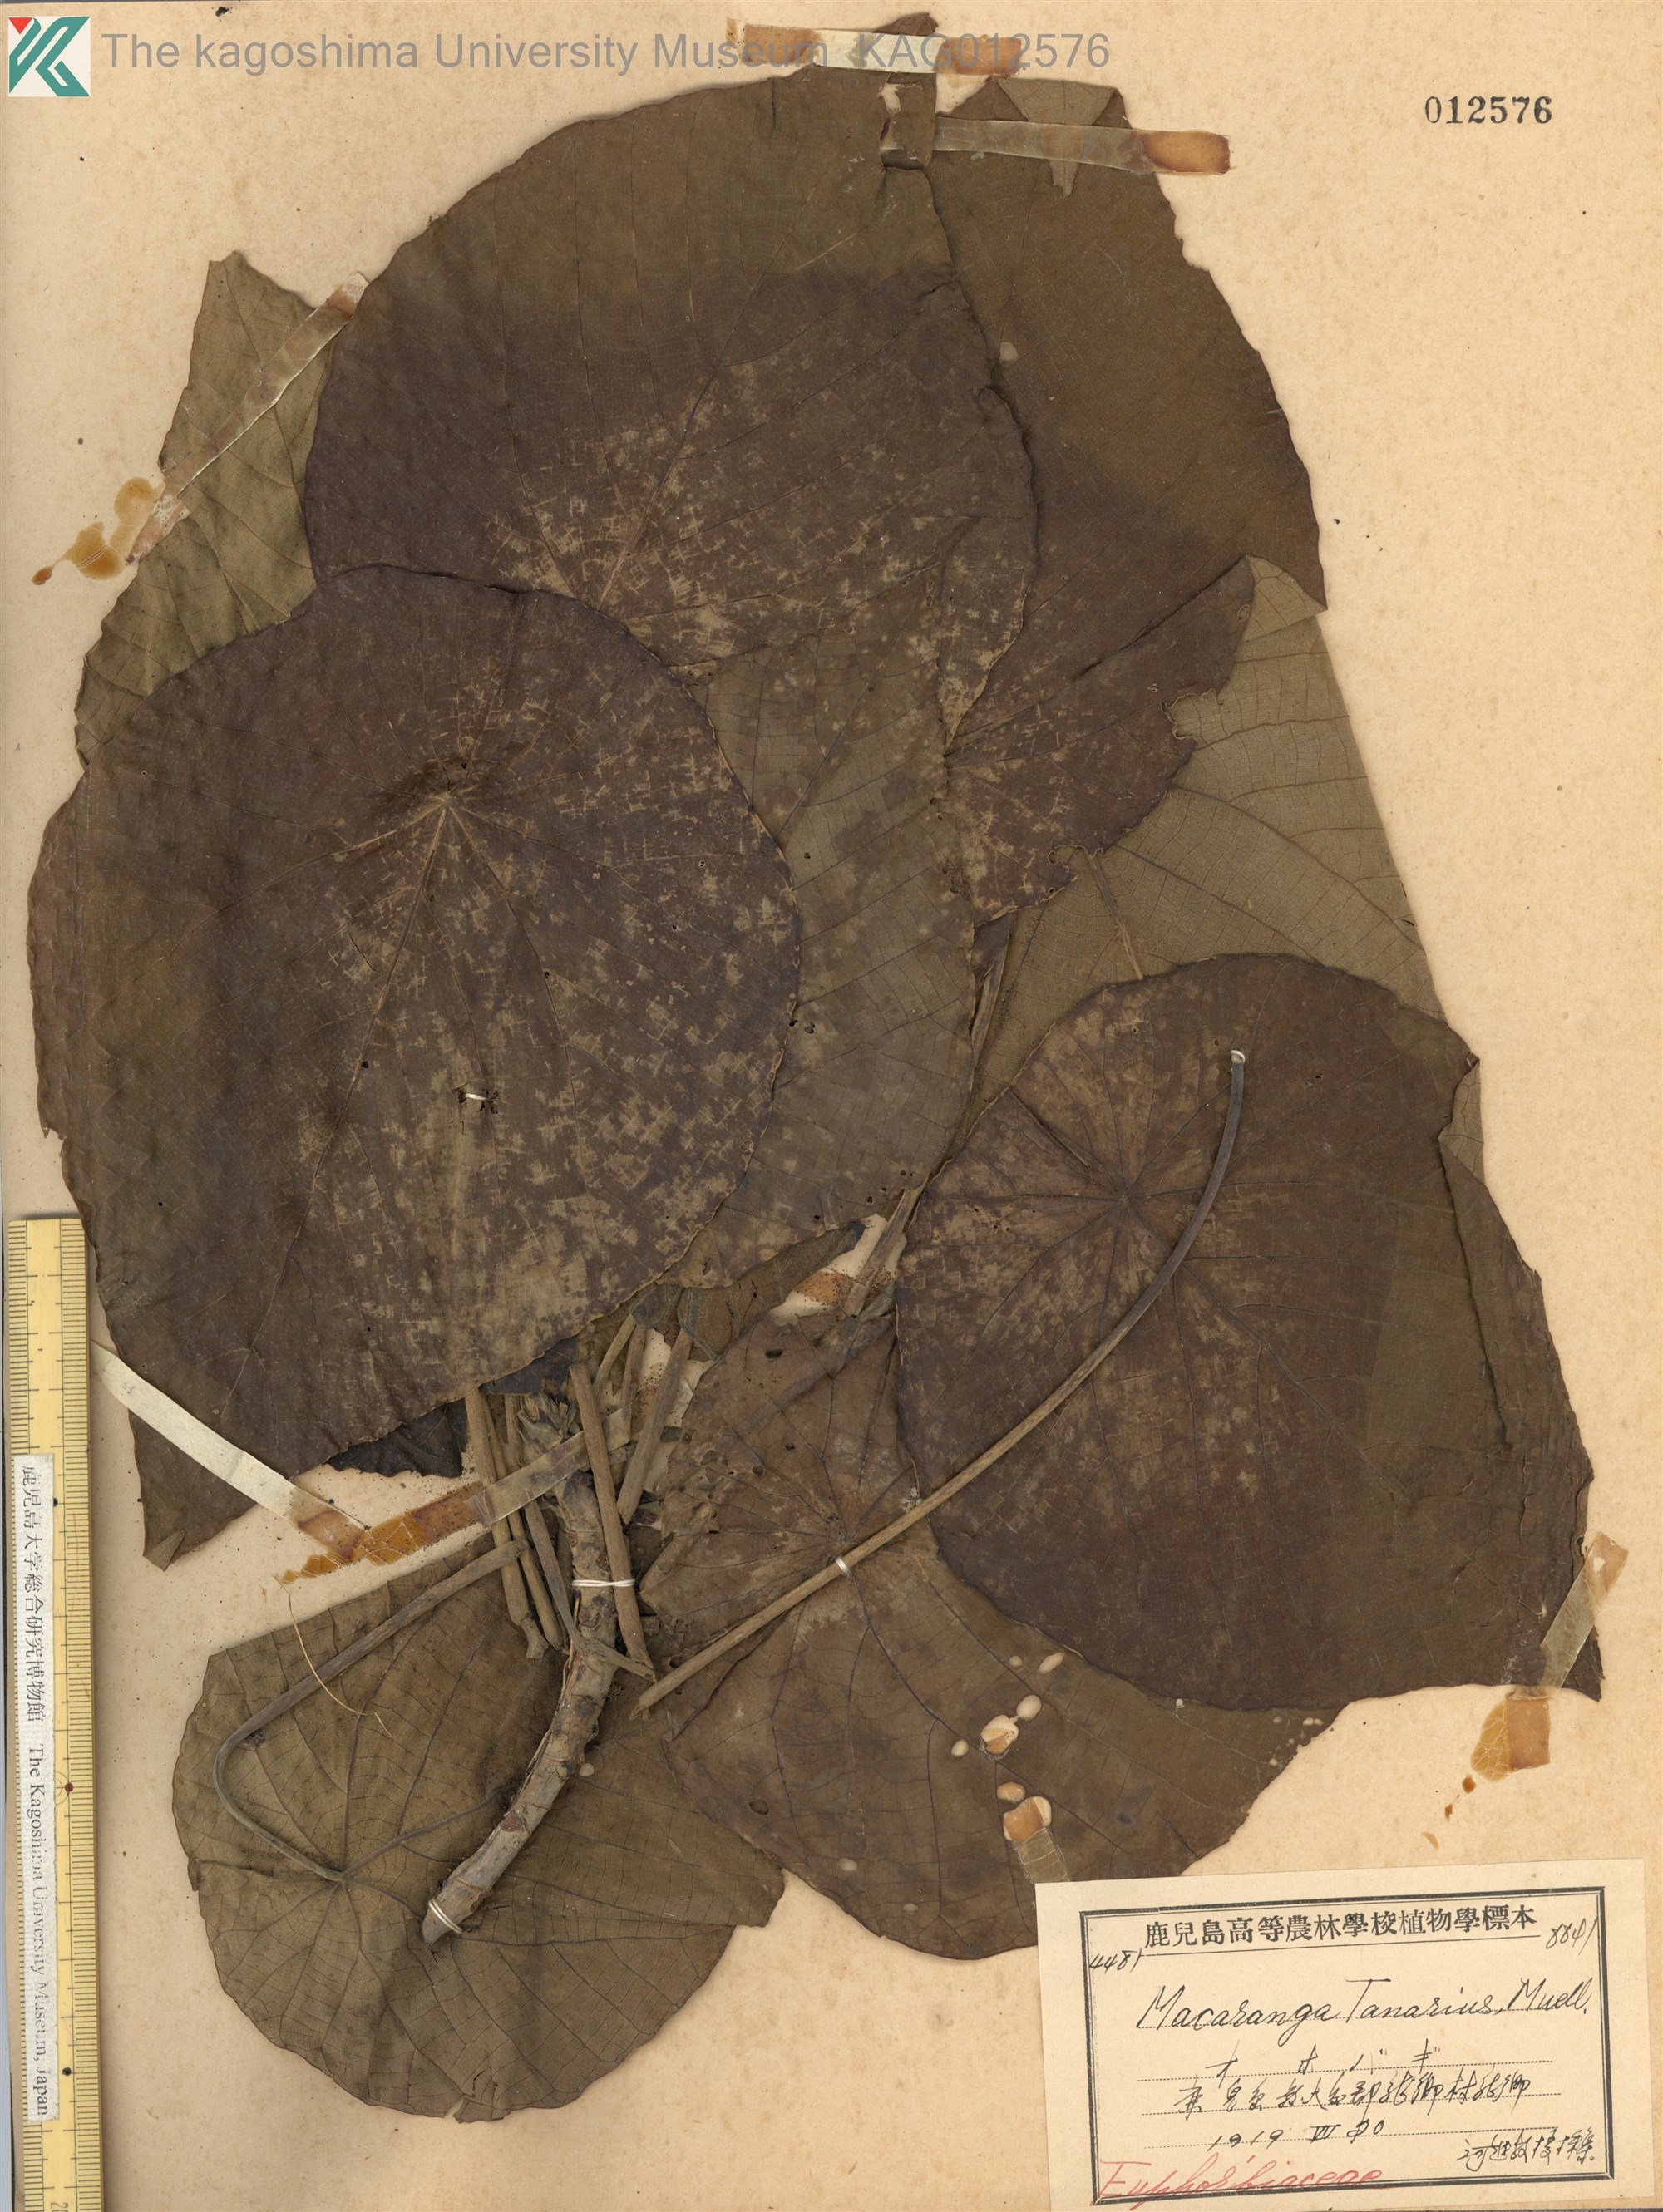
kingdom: Plantae
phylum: Tracheophyta
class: Magnoliopsida
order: Malpighiales
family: Euphorbiaceae
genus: Macaranga
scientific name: Macaranga tanarius
